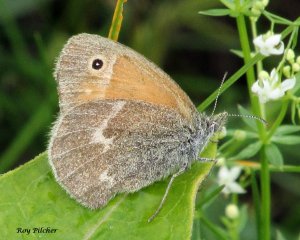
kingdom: Animalia
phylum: Arthropoda
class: Insecta
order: Lepidoptera
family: Nymphalidae
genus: Coenonympha
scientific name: Coenonympha tullia
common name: Large Heath
